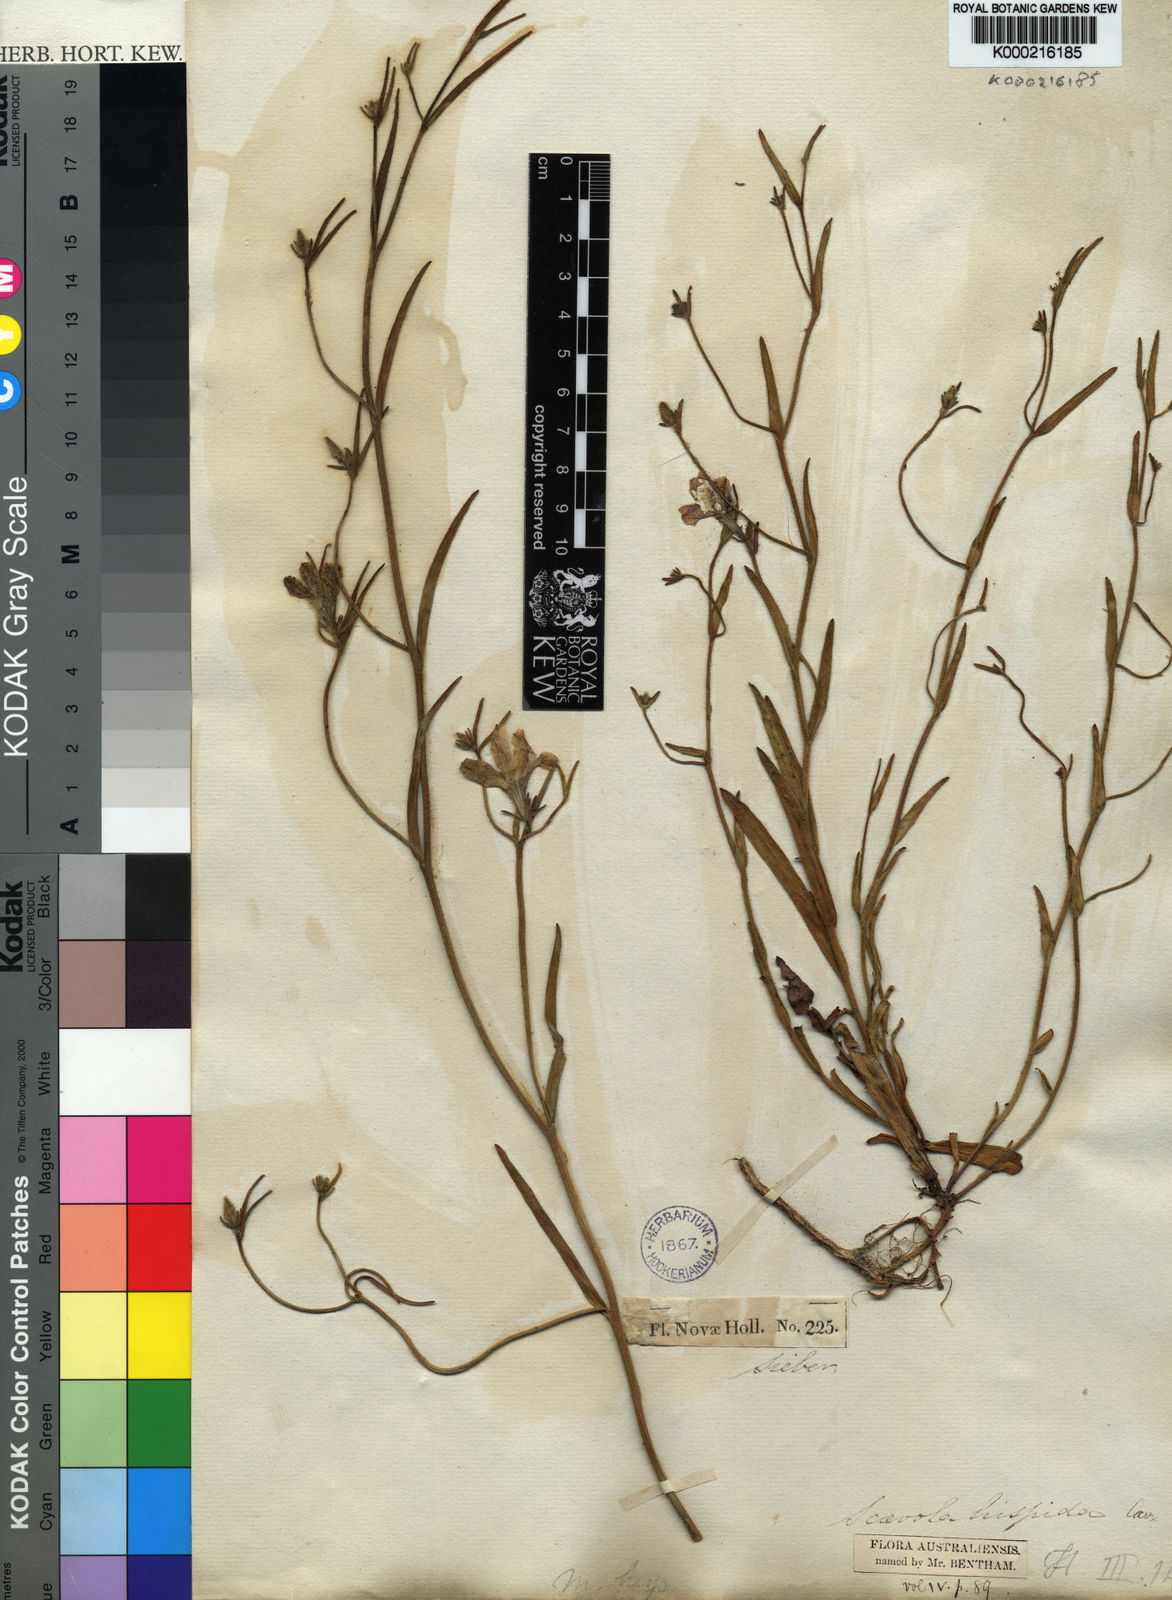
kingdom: Plantae
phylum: Tracheophyta
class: Magnoliopsida
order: Asterales
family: Goodeniaceae
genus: Scaevola
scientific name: Scaevola
